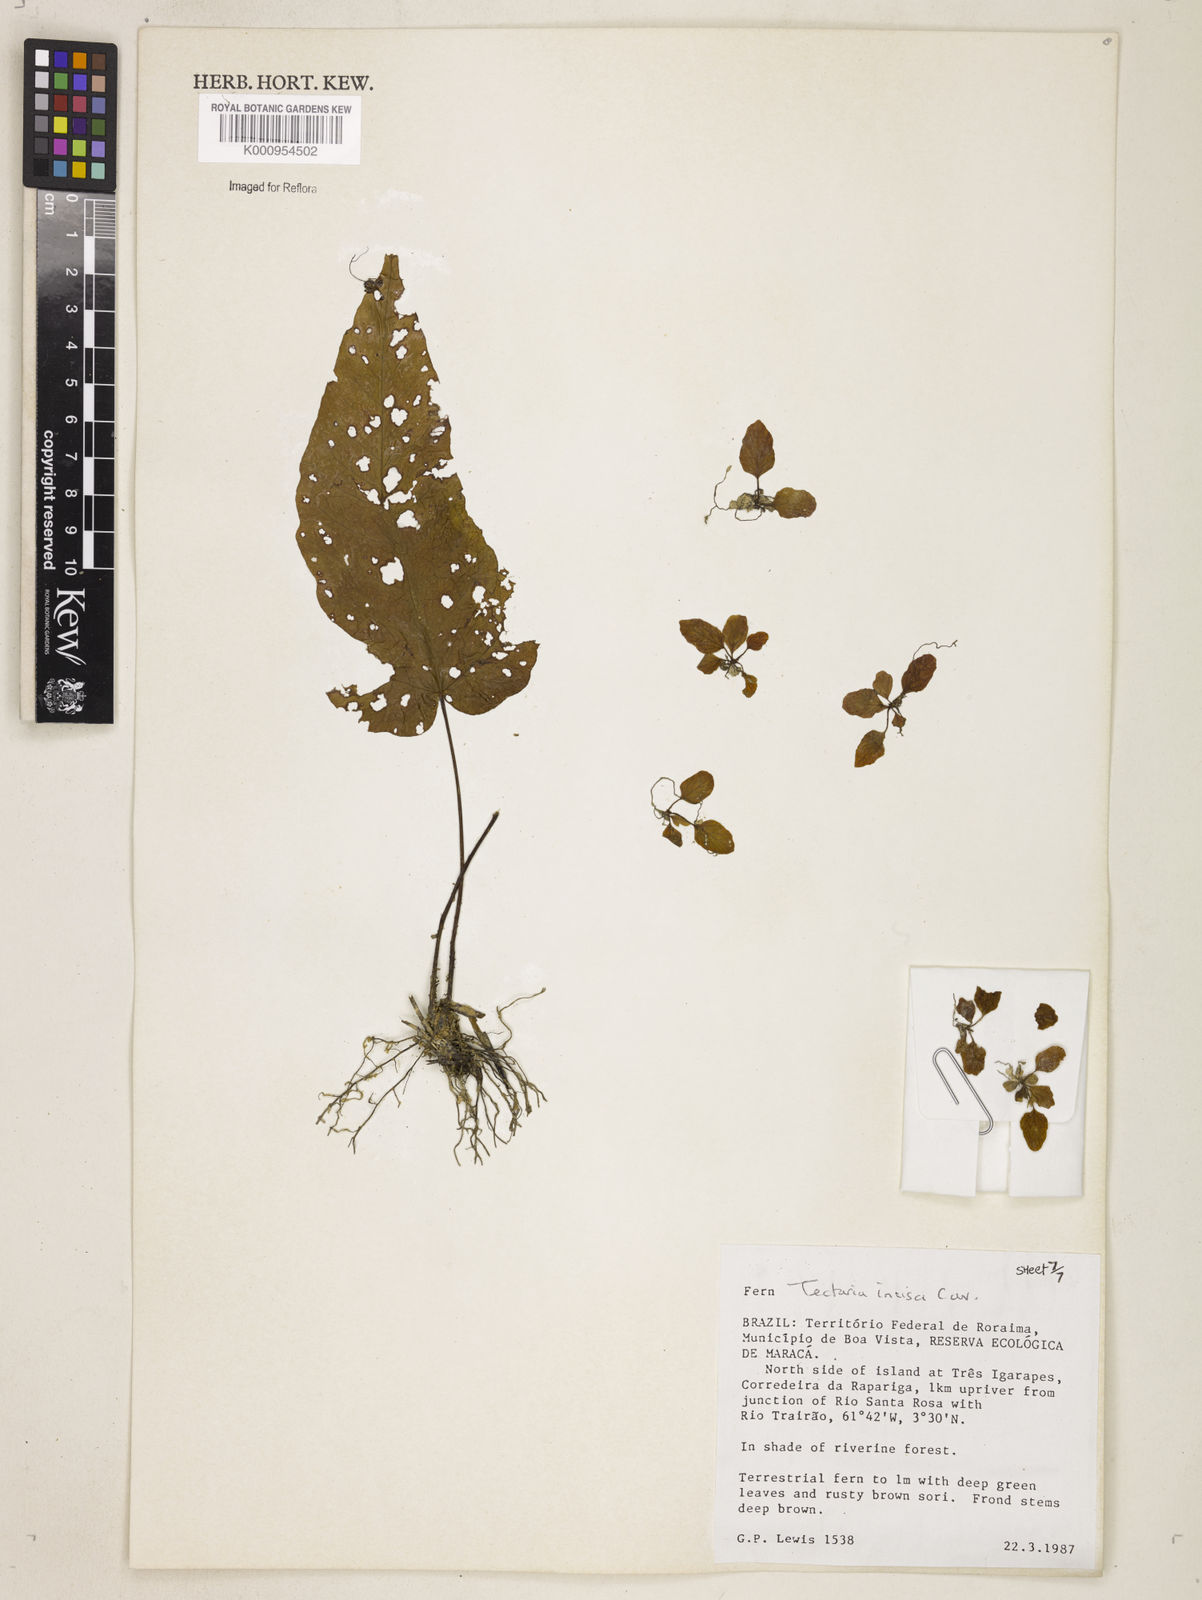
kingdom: Plantae
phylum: Tracheophyta
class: Polypodiopsida
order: Polypodiales
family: Tectariaceae
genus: Tectaria
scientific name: Tectaria incisa
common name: Incised halberd fern
